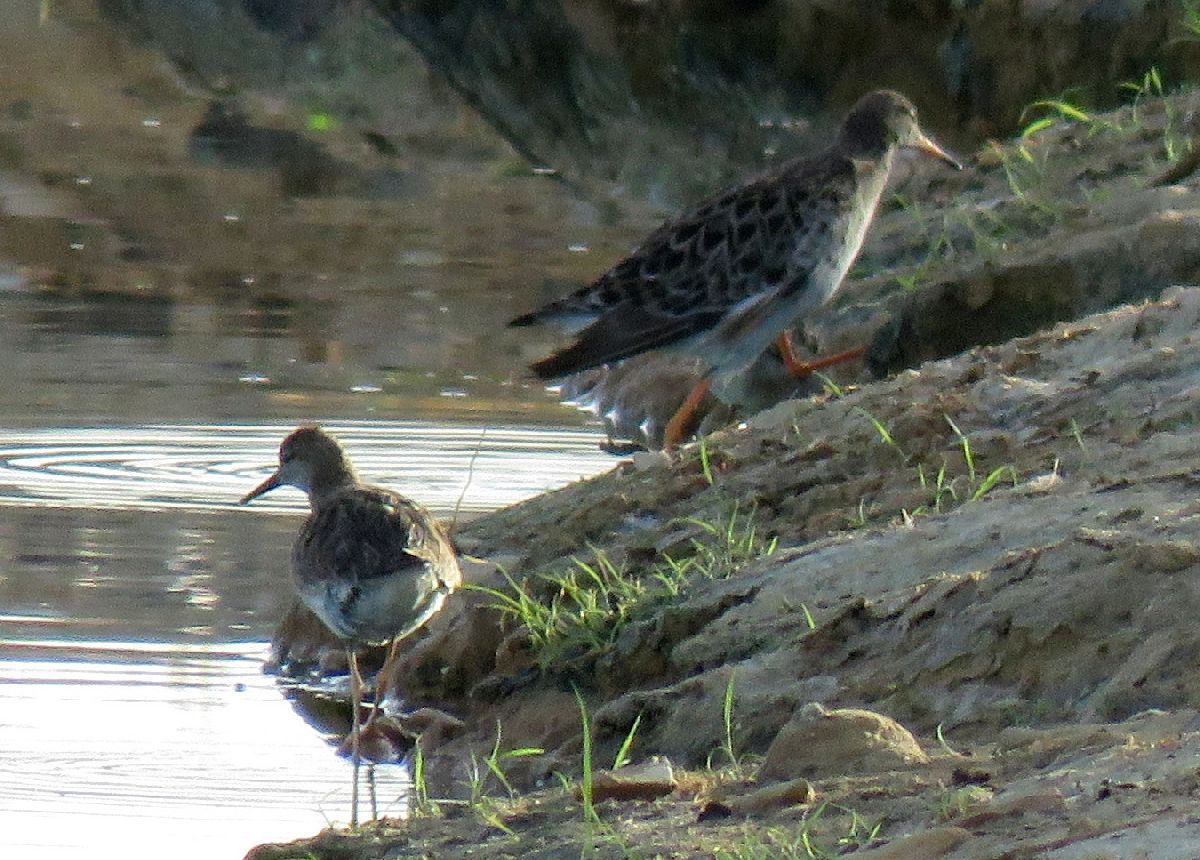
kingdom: Animalia
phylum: Chordata
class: Aves
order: Charadriiformes
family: Scolopacidae
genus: Calidris
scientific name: Calidris pugnax
